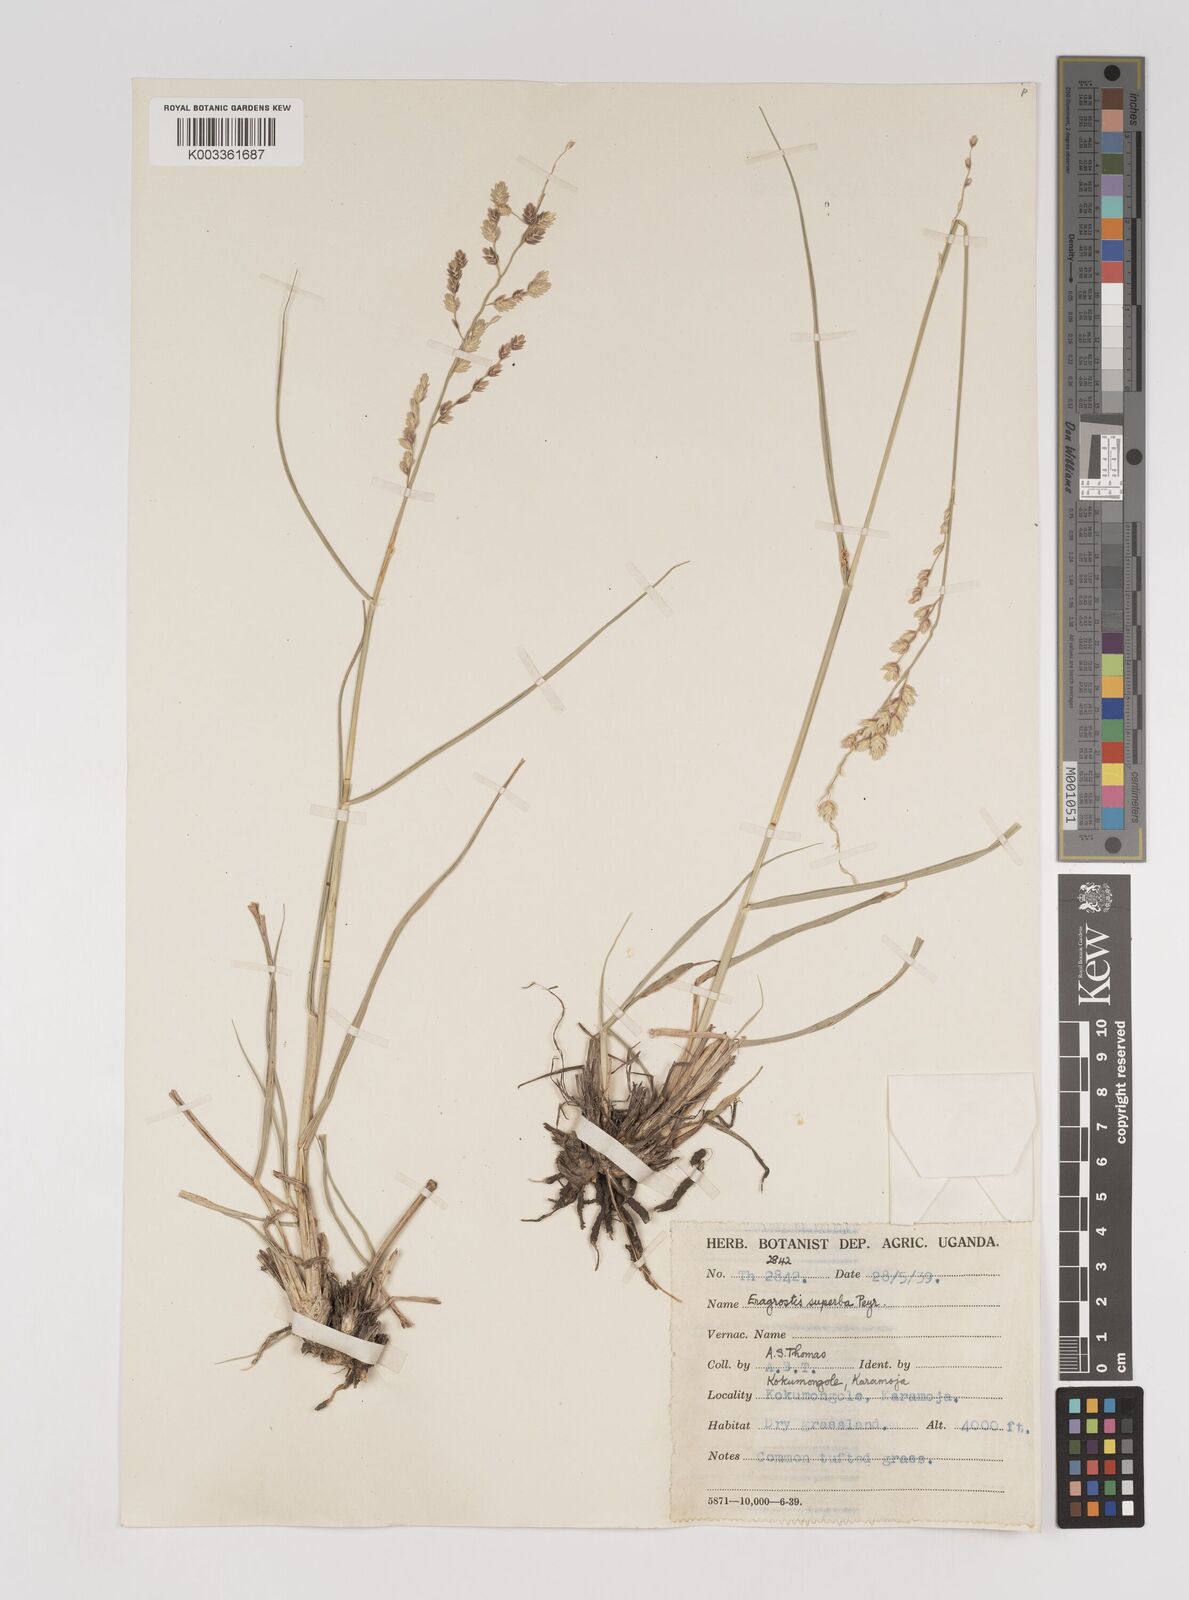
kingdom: Plantae
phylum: Tracheophyta
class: Liliopsida
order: Poales
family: Poaceae
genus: Eragrostis
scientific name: Eragrostis superba
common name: Wilman lovegrass
